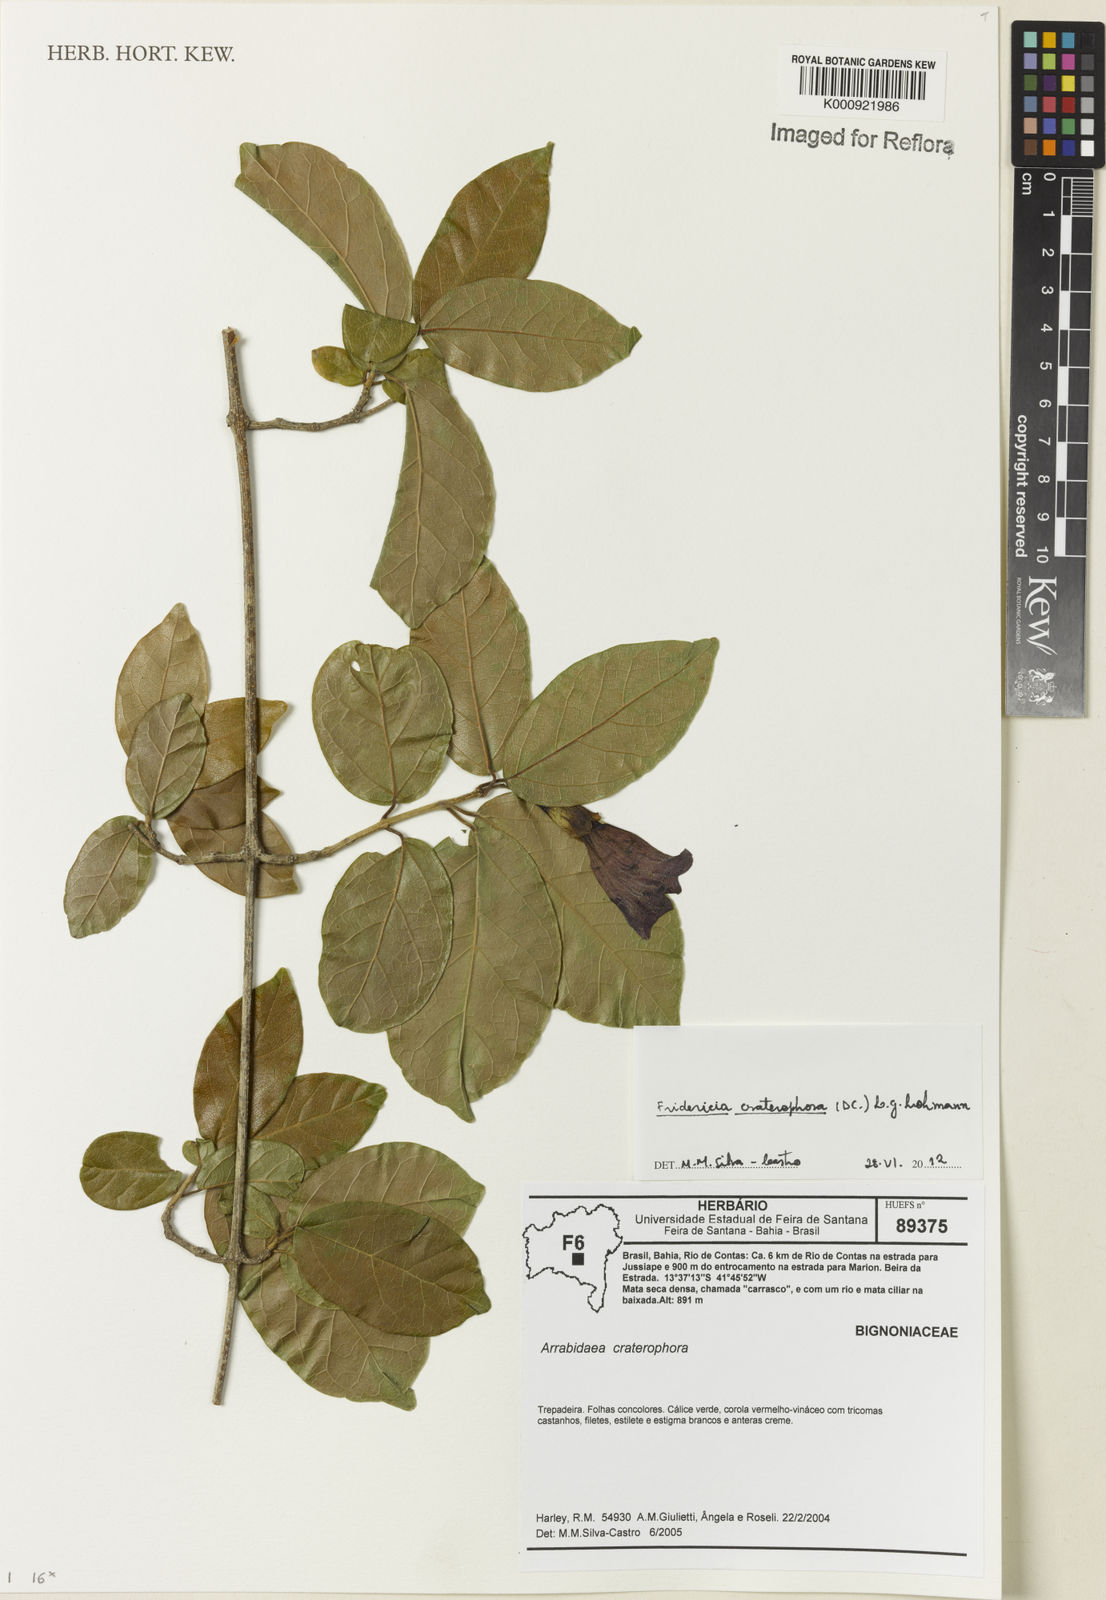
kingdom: Plantae
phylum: Tracheophyta
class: Magnoliopsida
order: Lamiales
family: Bignoniaceae
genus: Fridericia
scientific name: Fridericia craterophora
